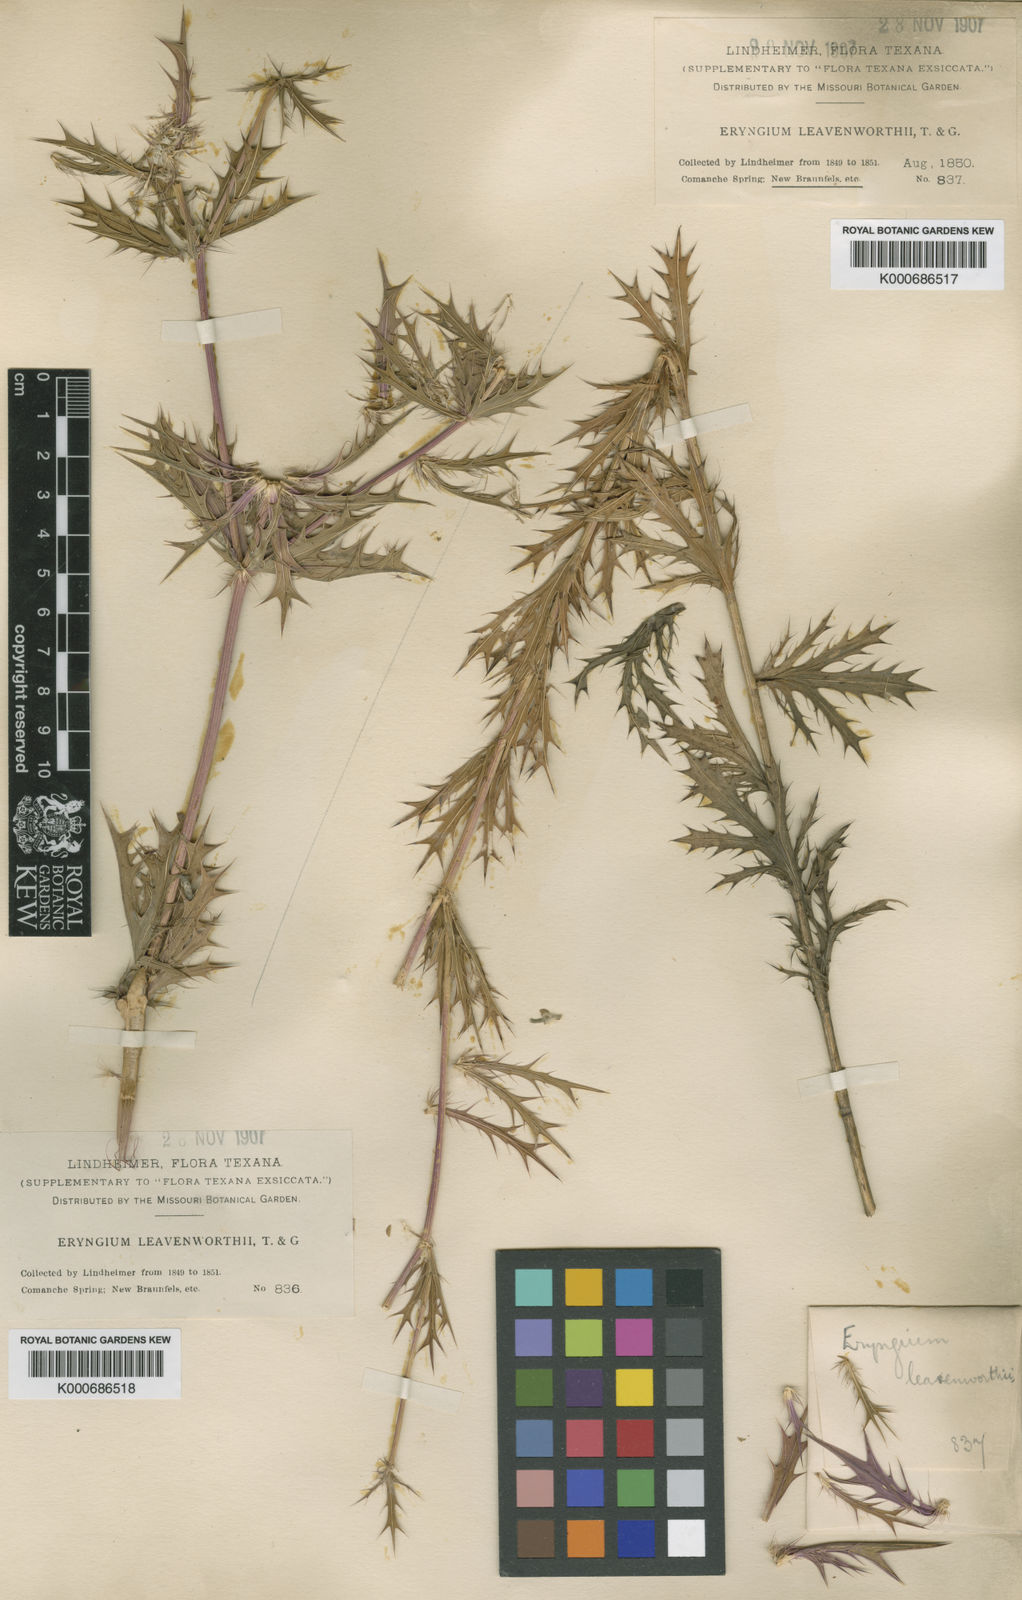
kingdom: Plantae
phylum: Tracheophyta
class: Magnoliopsida
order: Apiales
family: Apiaceae
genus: Eryngium
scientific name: Eryngium leavenworthii
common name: Leavenworth's eryngo
